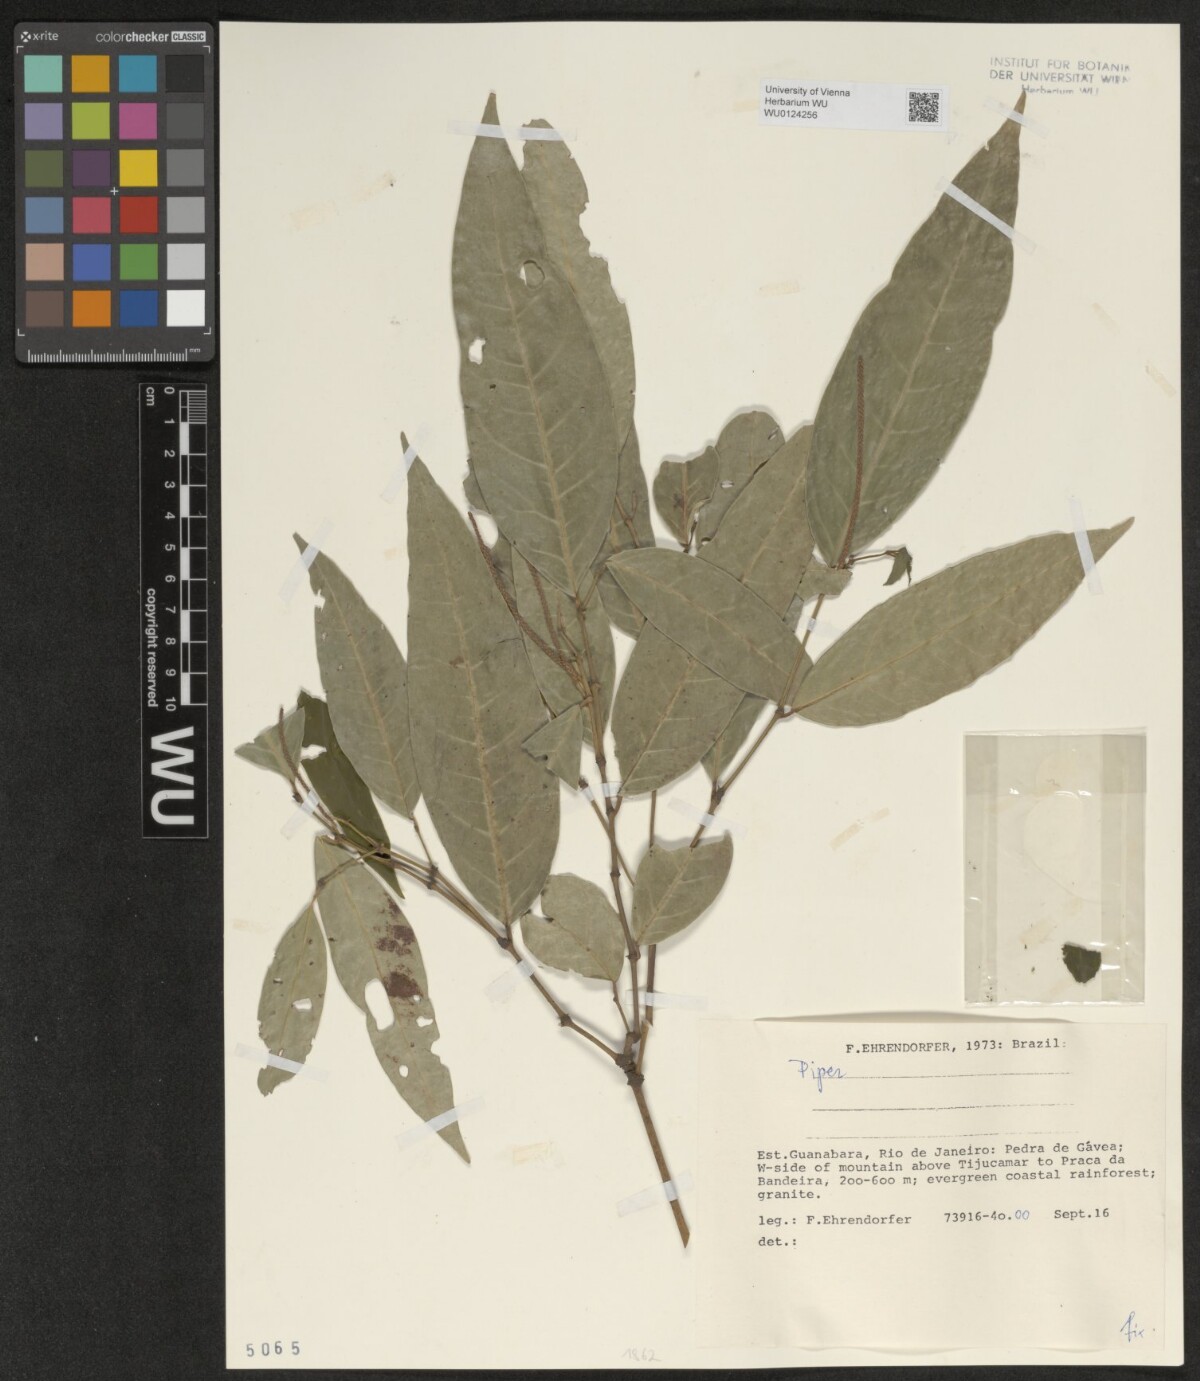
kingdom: Plantae
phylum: Tracheophyta
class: Magnoliopsida
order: Piperales
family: Piperaceae
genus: Piper
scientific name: Piper
